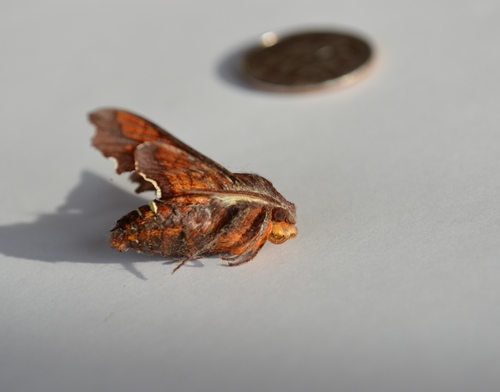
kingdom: Animalia
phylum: Arthropoda
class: Insecta
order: Lepidoptera
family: Sphingidae
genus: Amphion
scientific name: Amphion floridensis
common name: Nessus sphinx
